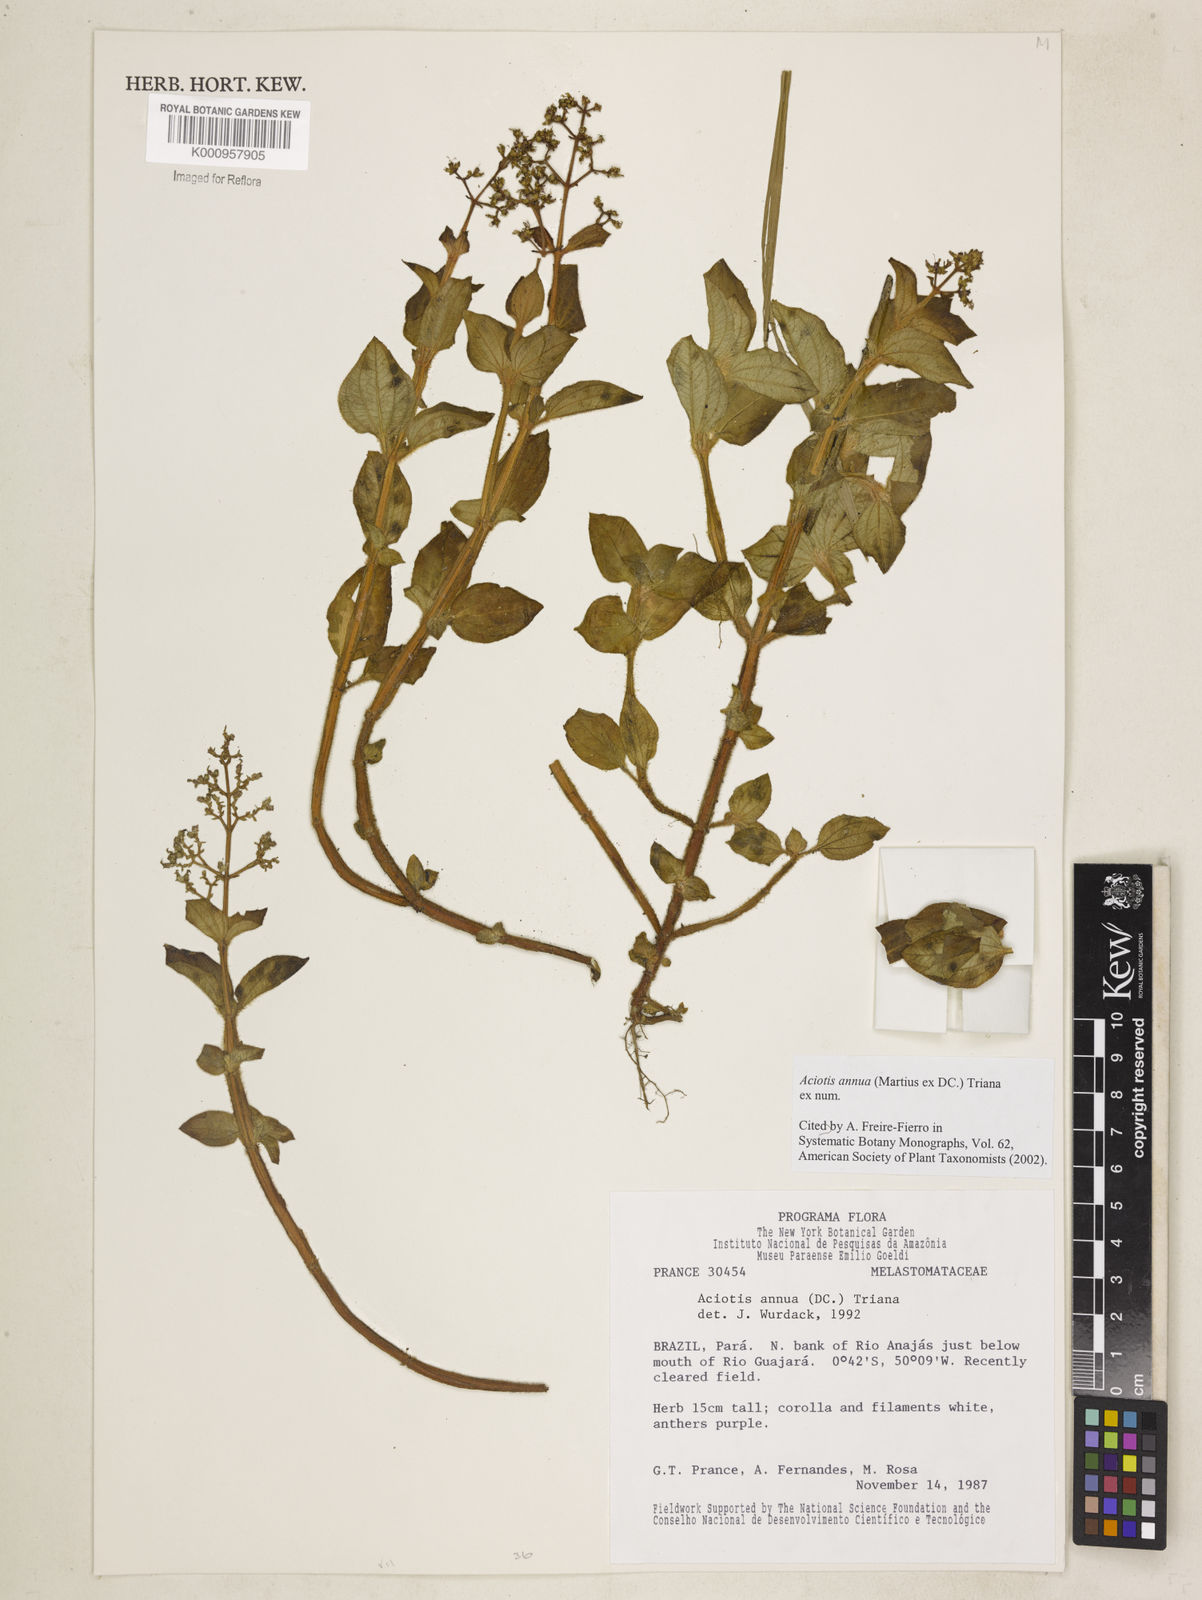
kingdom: Plantae
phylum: Tracheophyta
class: Magnoliopsida
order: Myrtales
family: Melastomataceae
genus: Aciotis
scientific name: Aciotis annua
